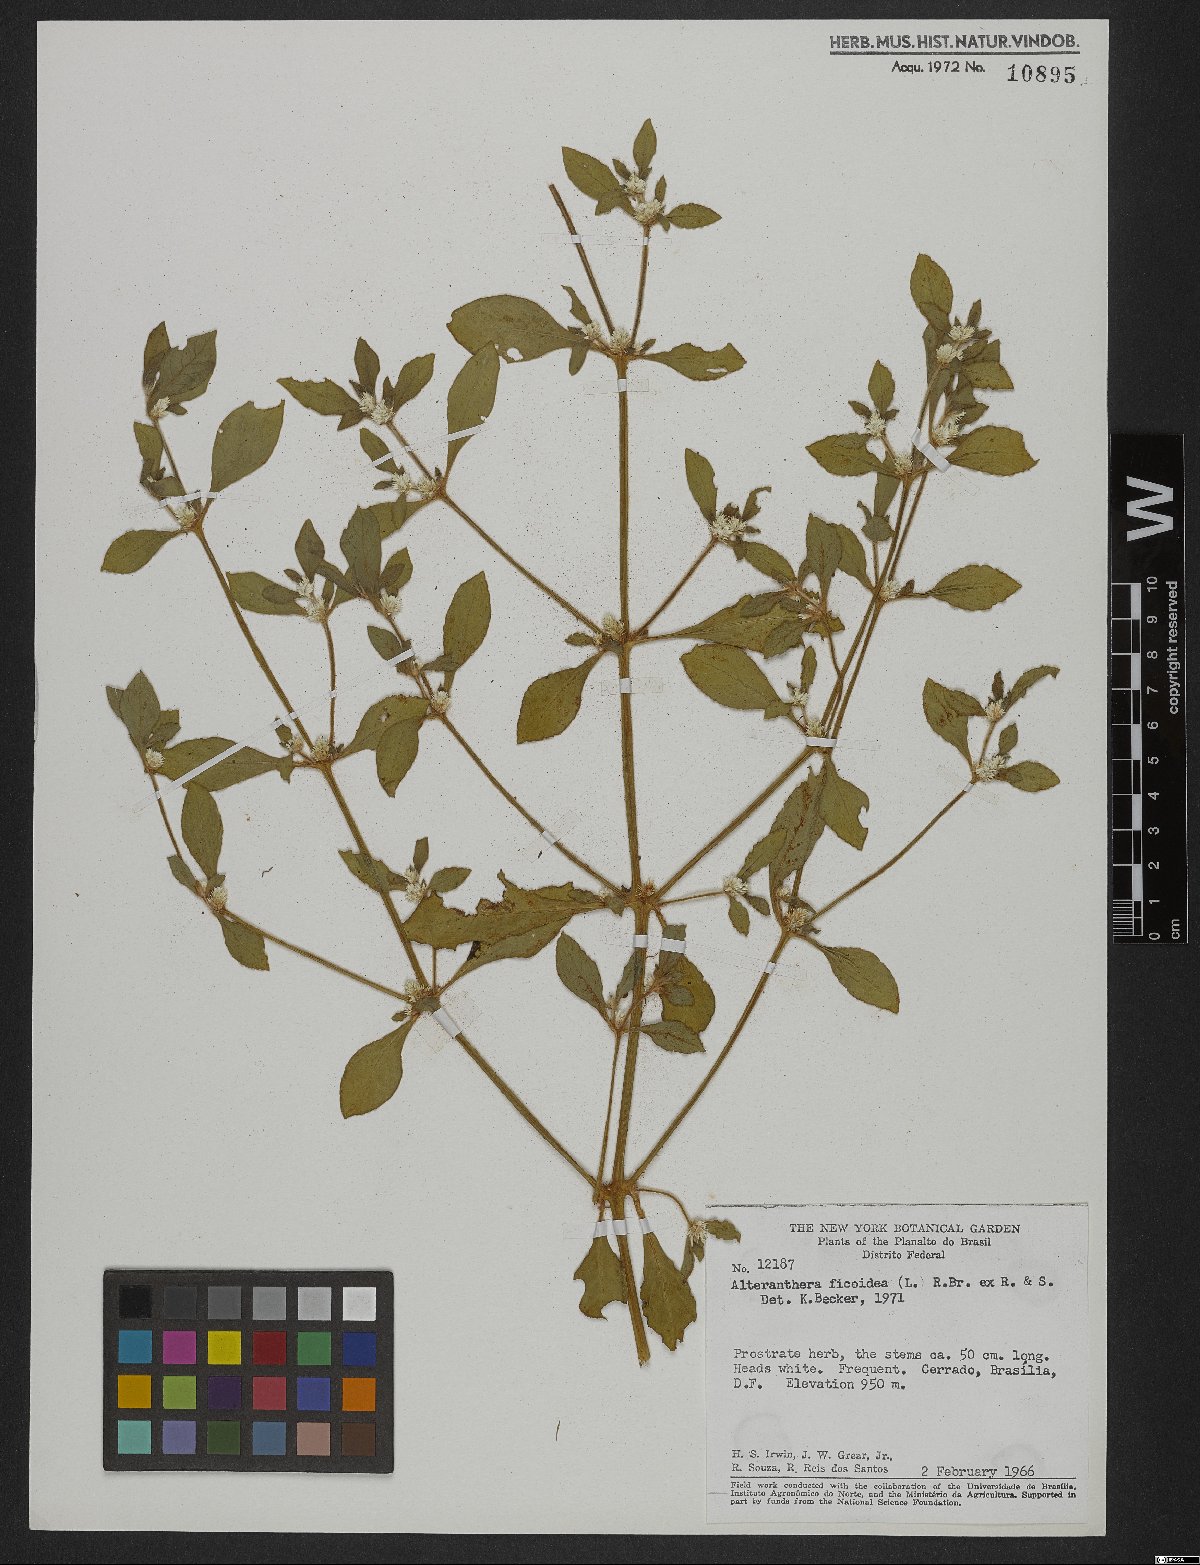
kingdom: Plantae
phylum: Tracheophyta
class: Magnoliopsida
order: Caryophyllales
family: Amaranthaceae
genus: Alternanthera
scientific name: Alternanthera ficoidea
